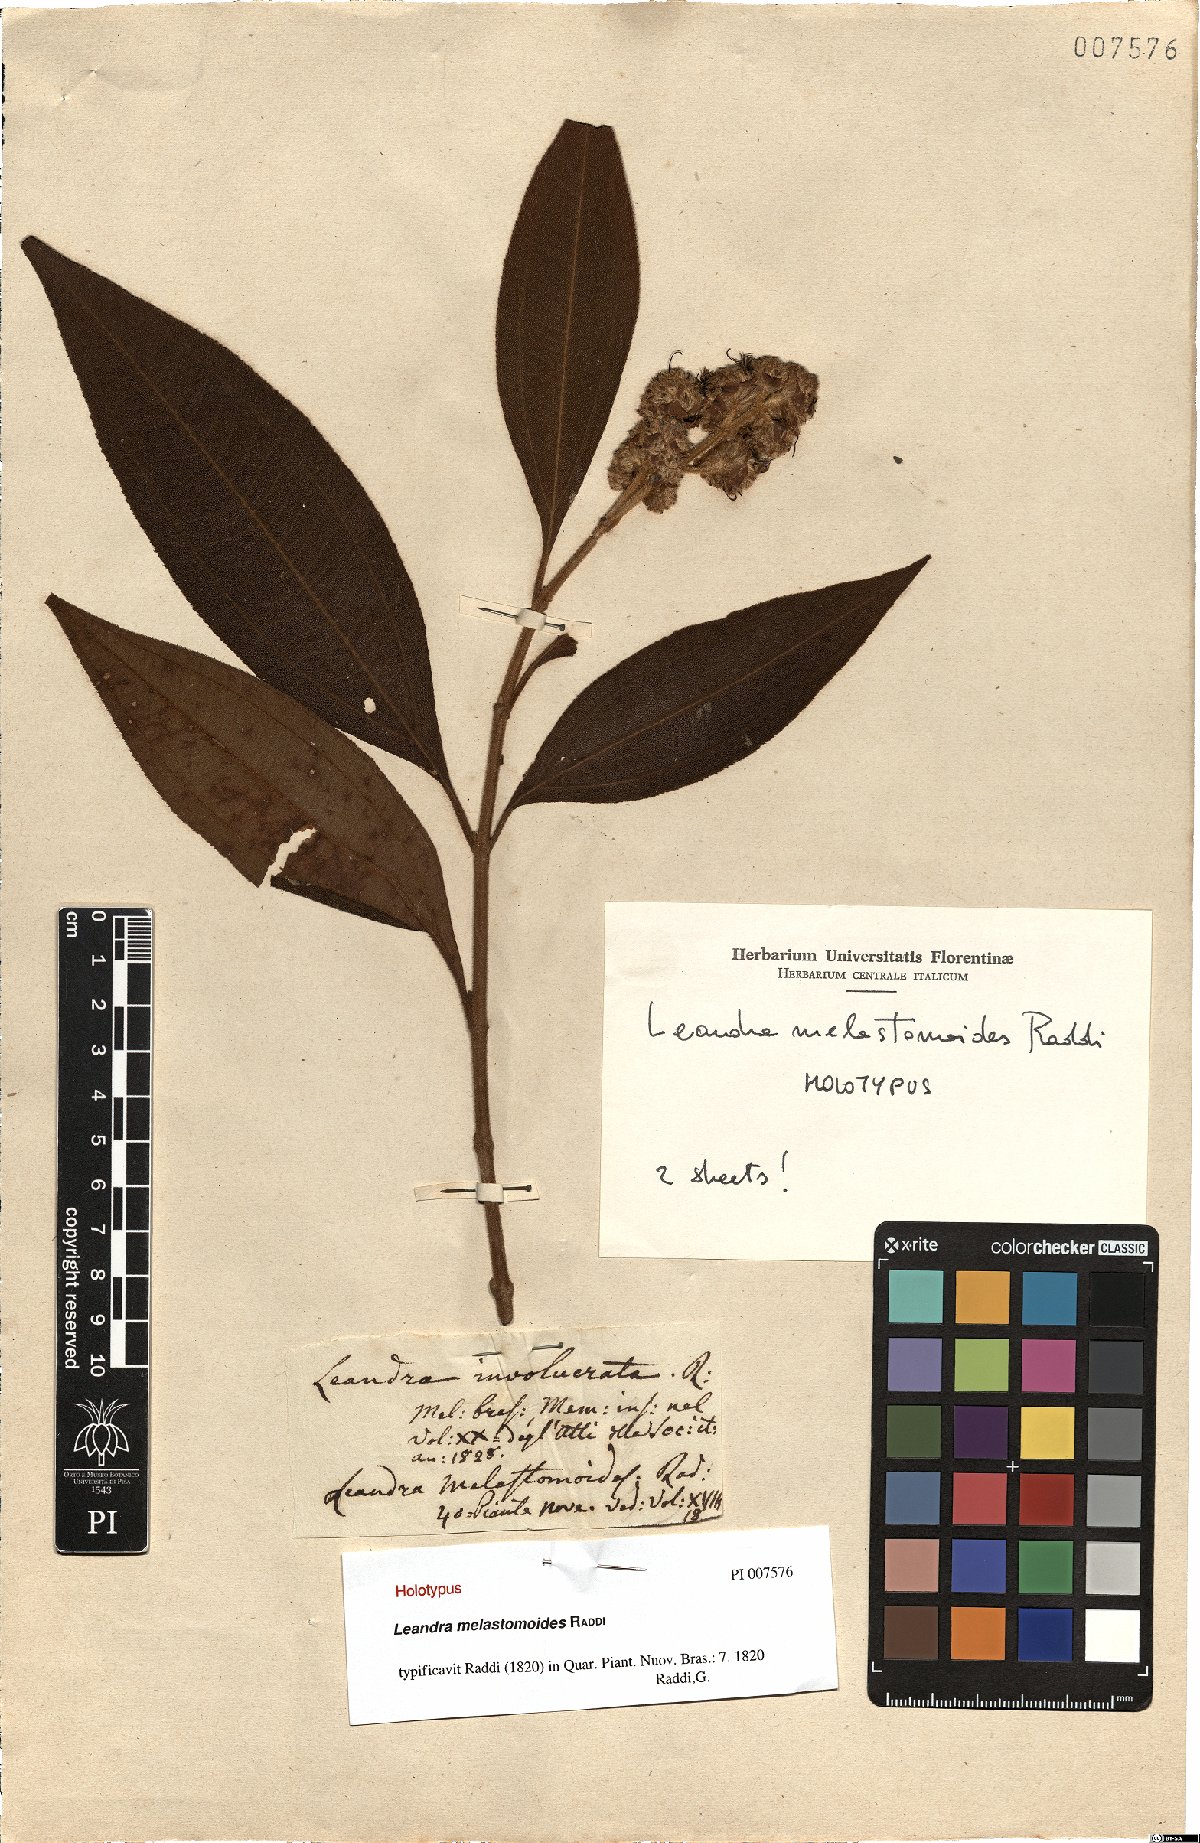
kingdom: Plantae
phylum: Tracheophyta
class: Magnoliopsida
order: Myrtales
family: Melastomataceae
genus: Miconia
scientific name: Miconia melastomoides
